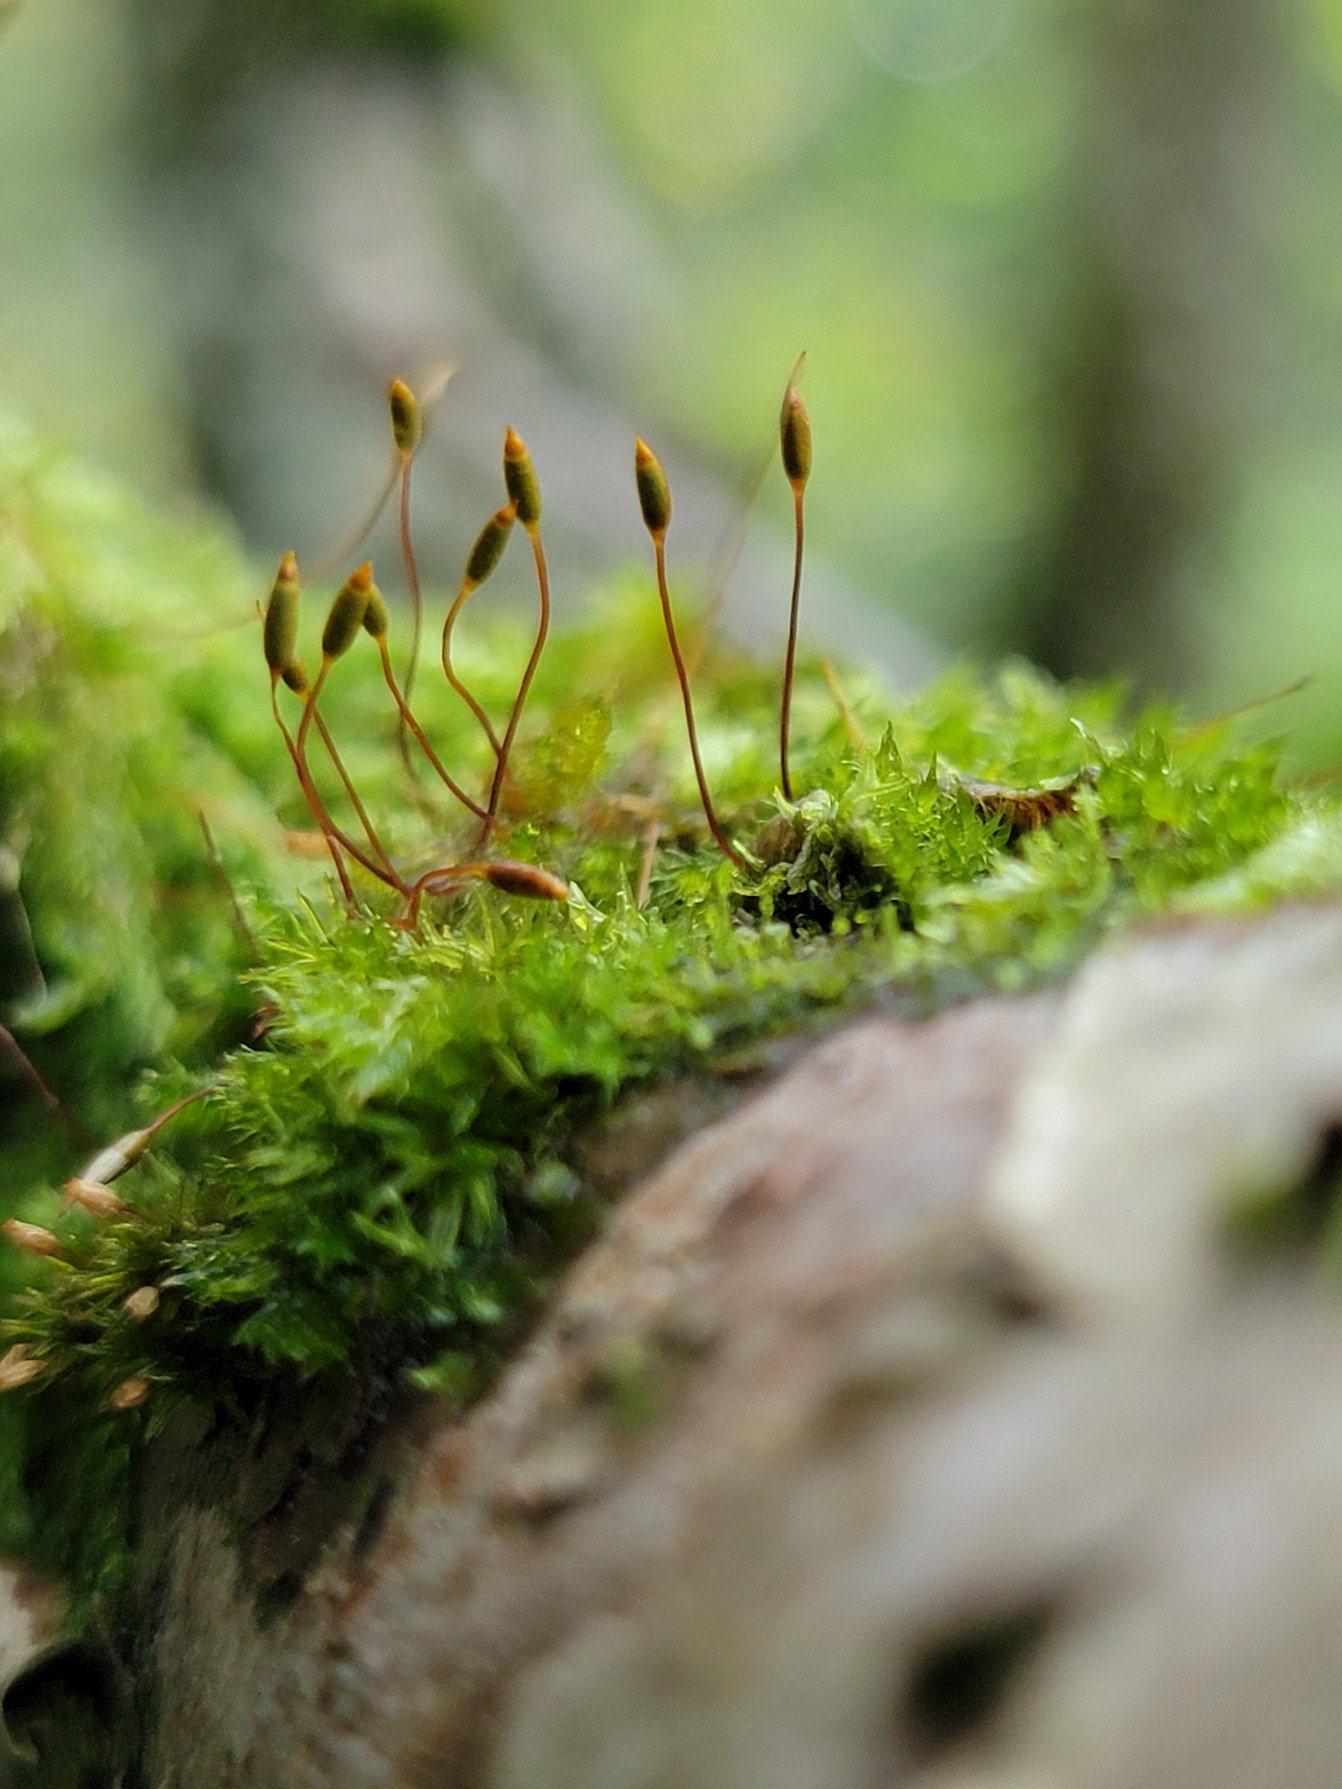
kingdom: Plantae
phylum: Bryophyta
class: Bryopsida
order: Hypnales
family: Pylaisiaceae
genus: Pylaisia
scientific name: Pylaisia polyantha
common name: Mangefrugtet aspemos
